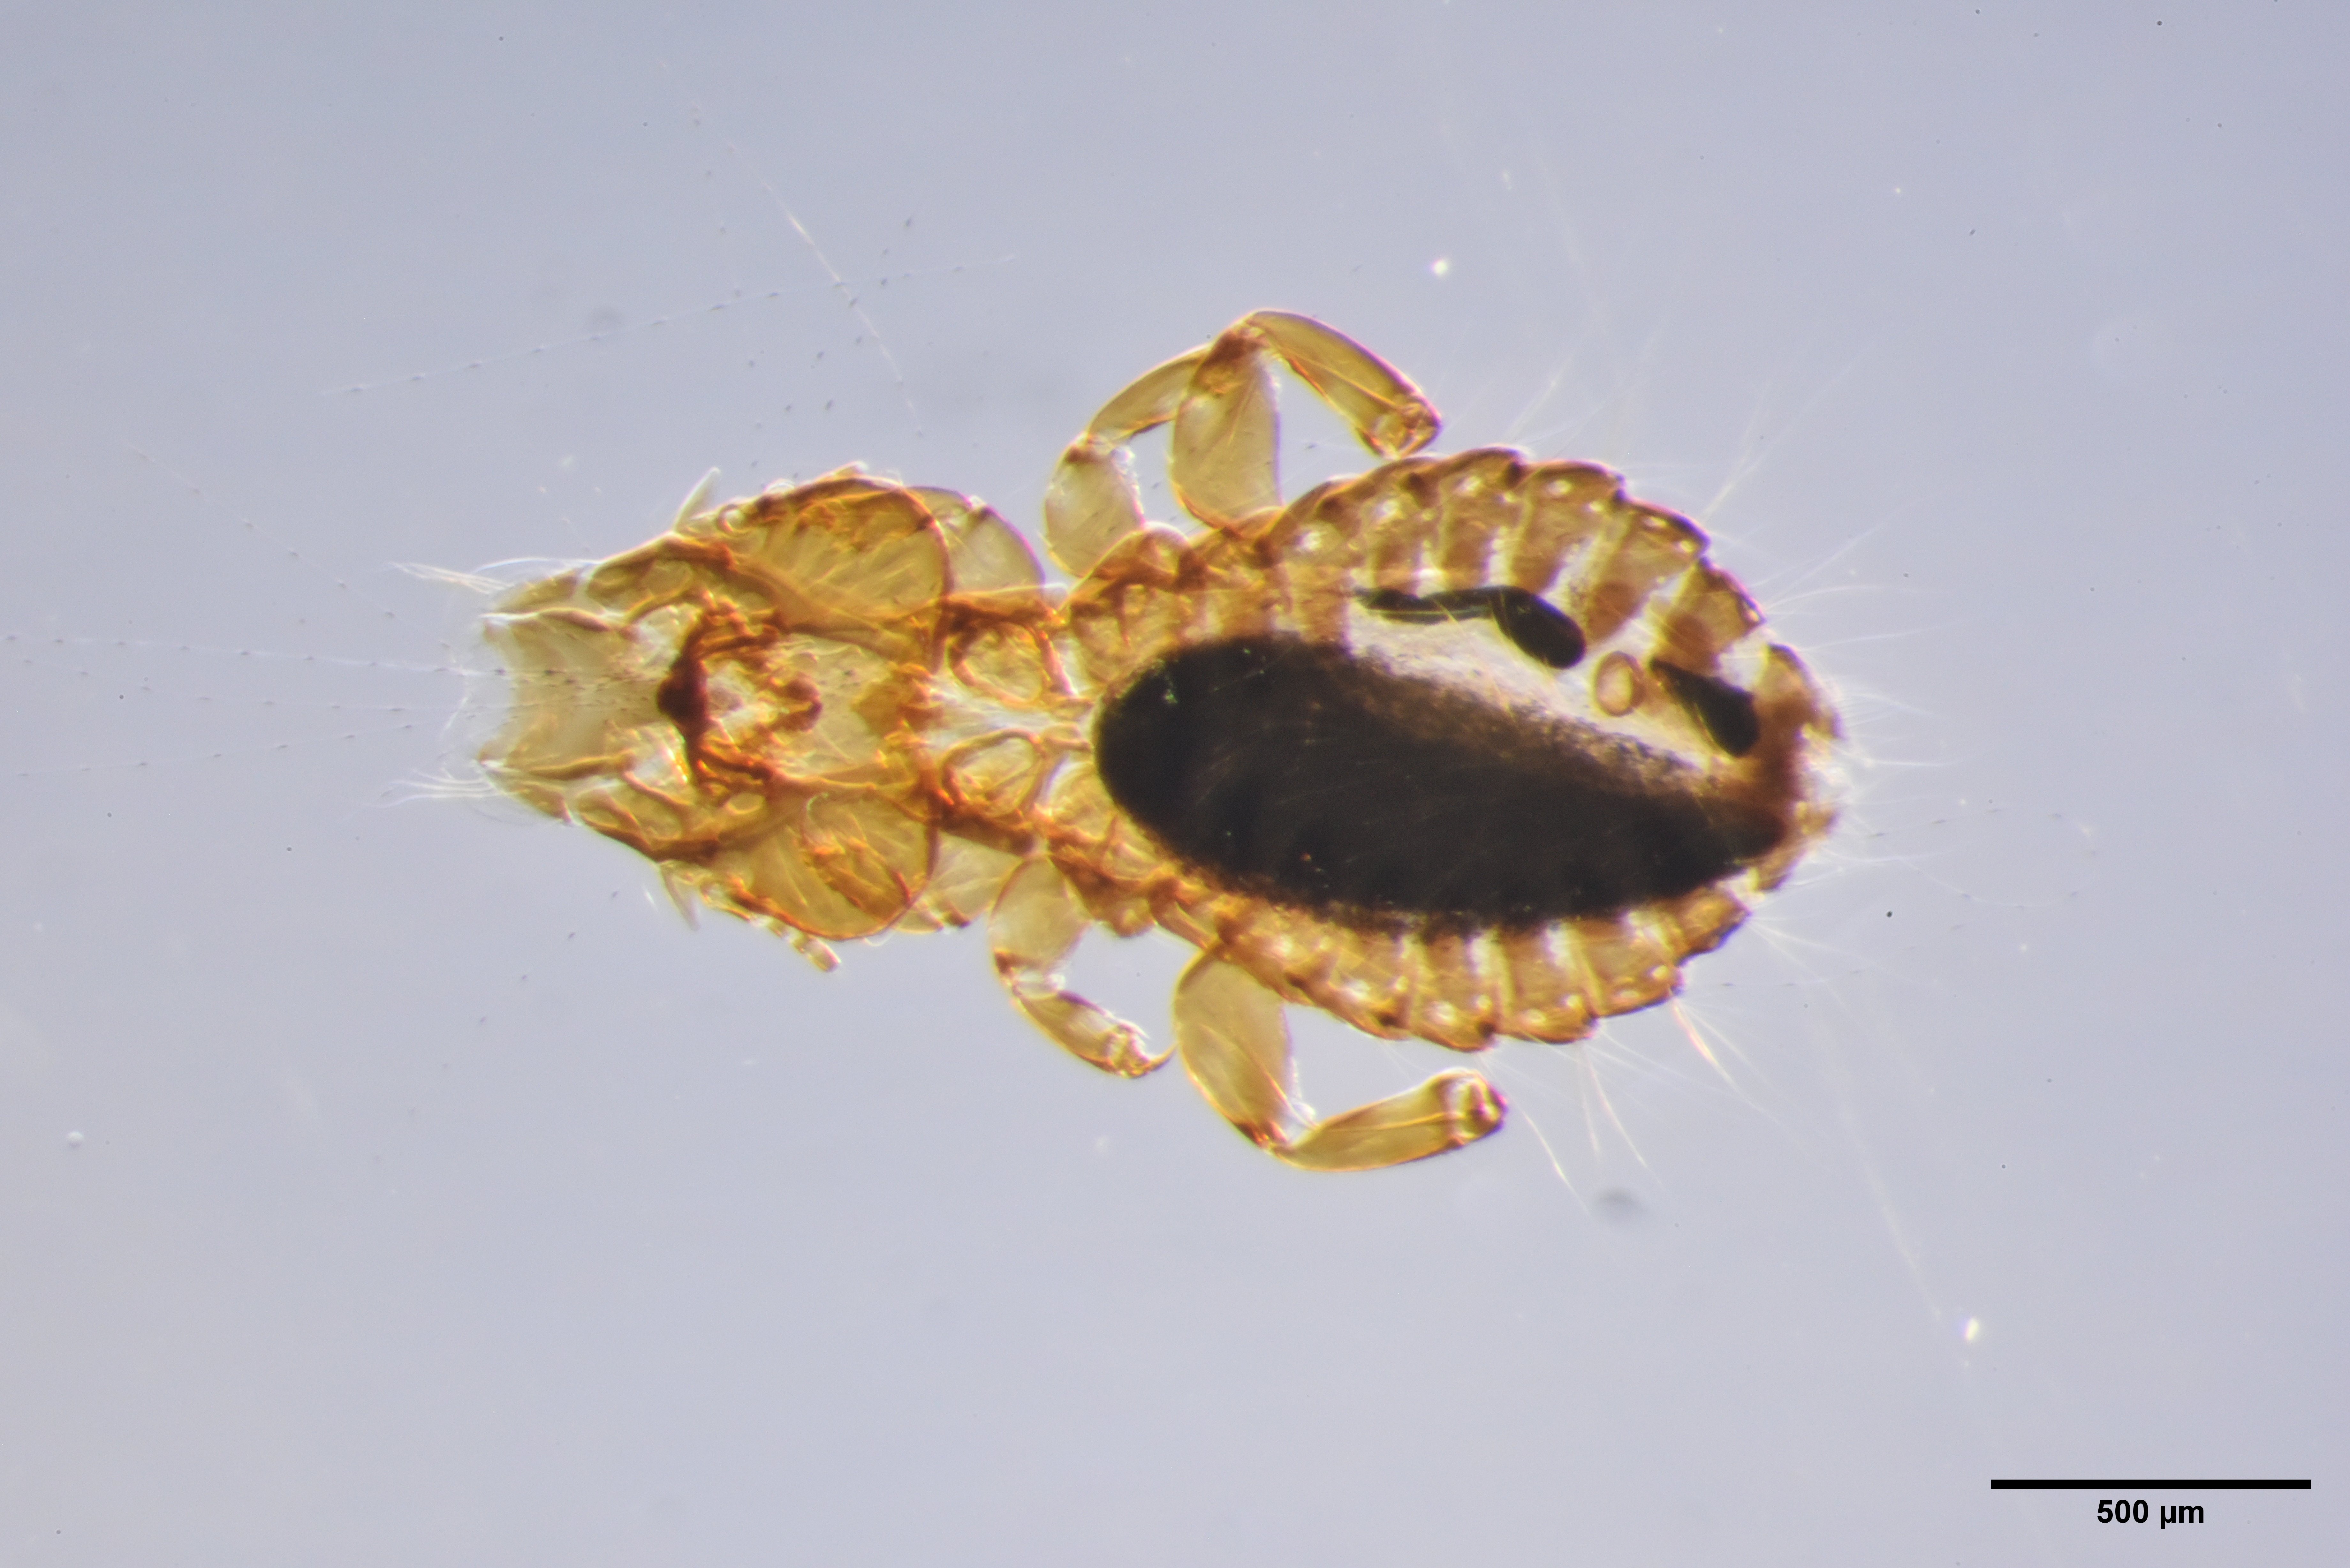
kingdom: Animalia
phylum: Arthropoda
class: Insecta
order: Psocodea
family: Philopteridae
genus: Cuculoecus
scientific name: Cuculoecus latifrons
